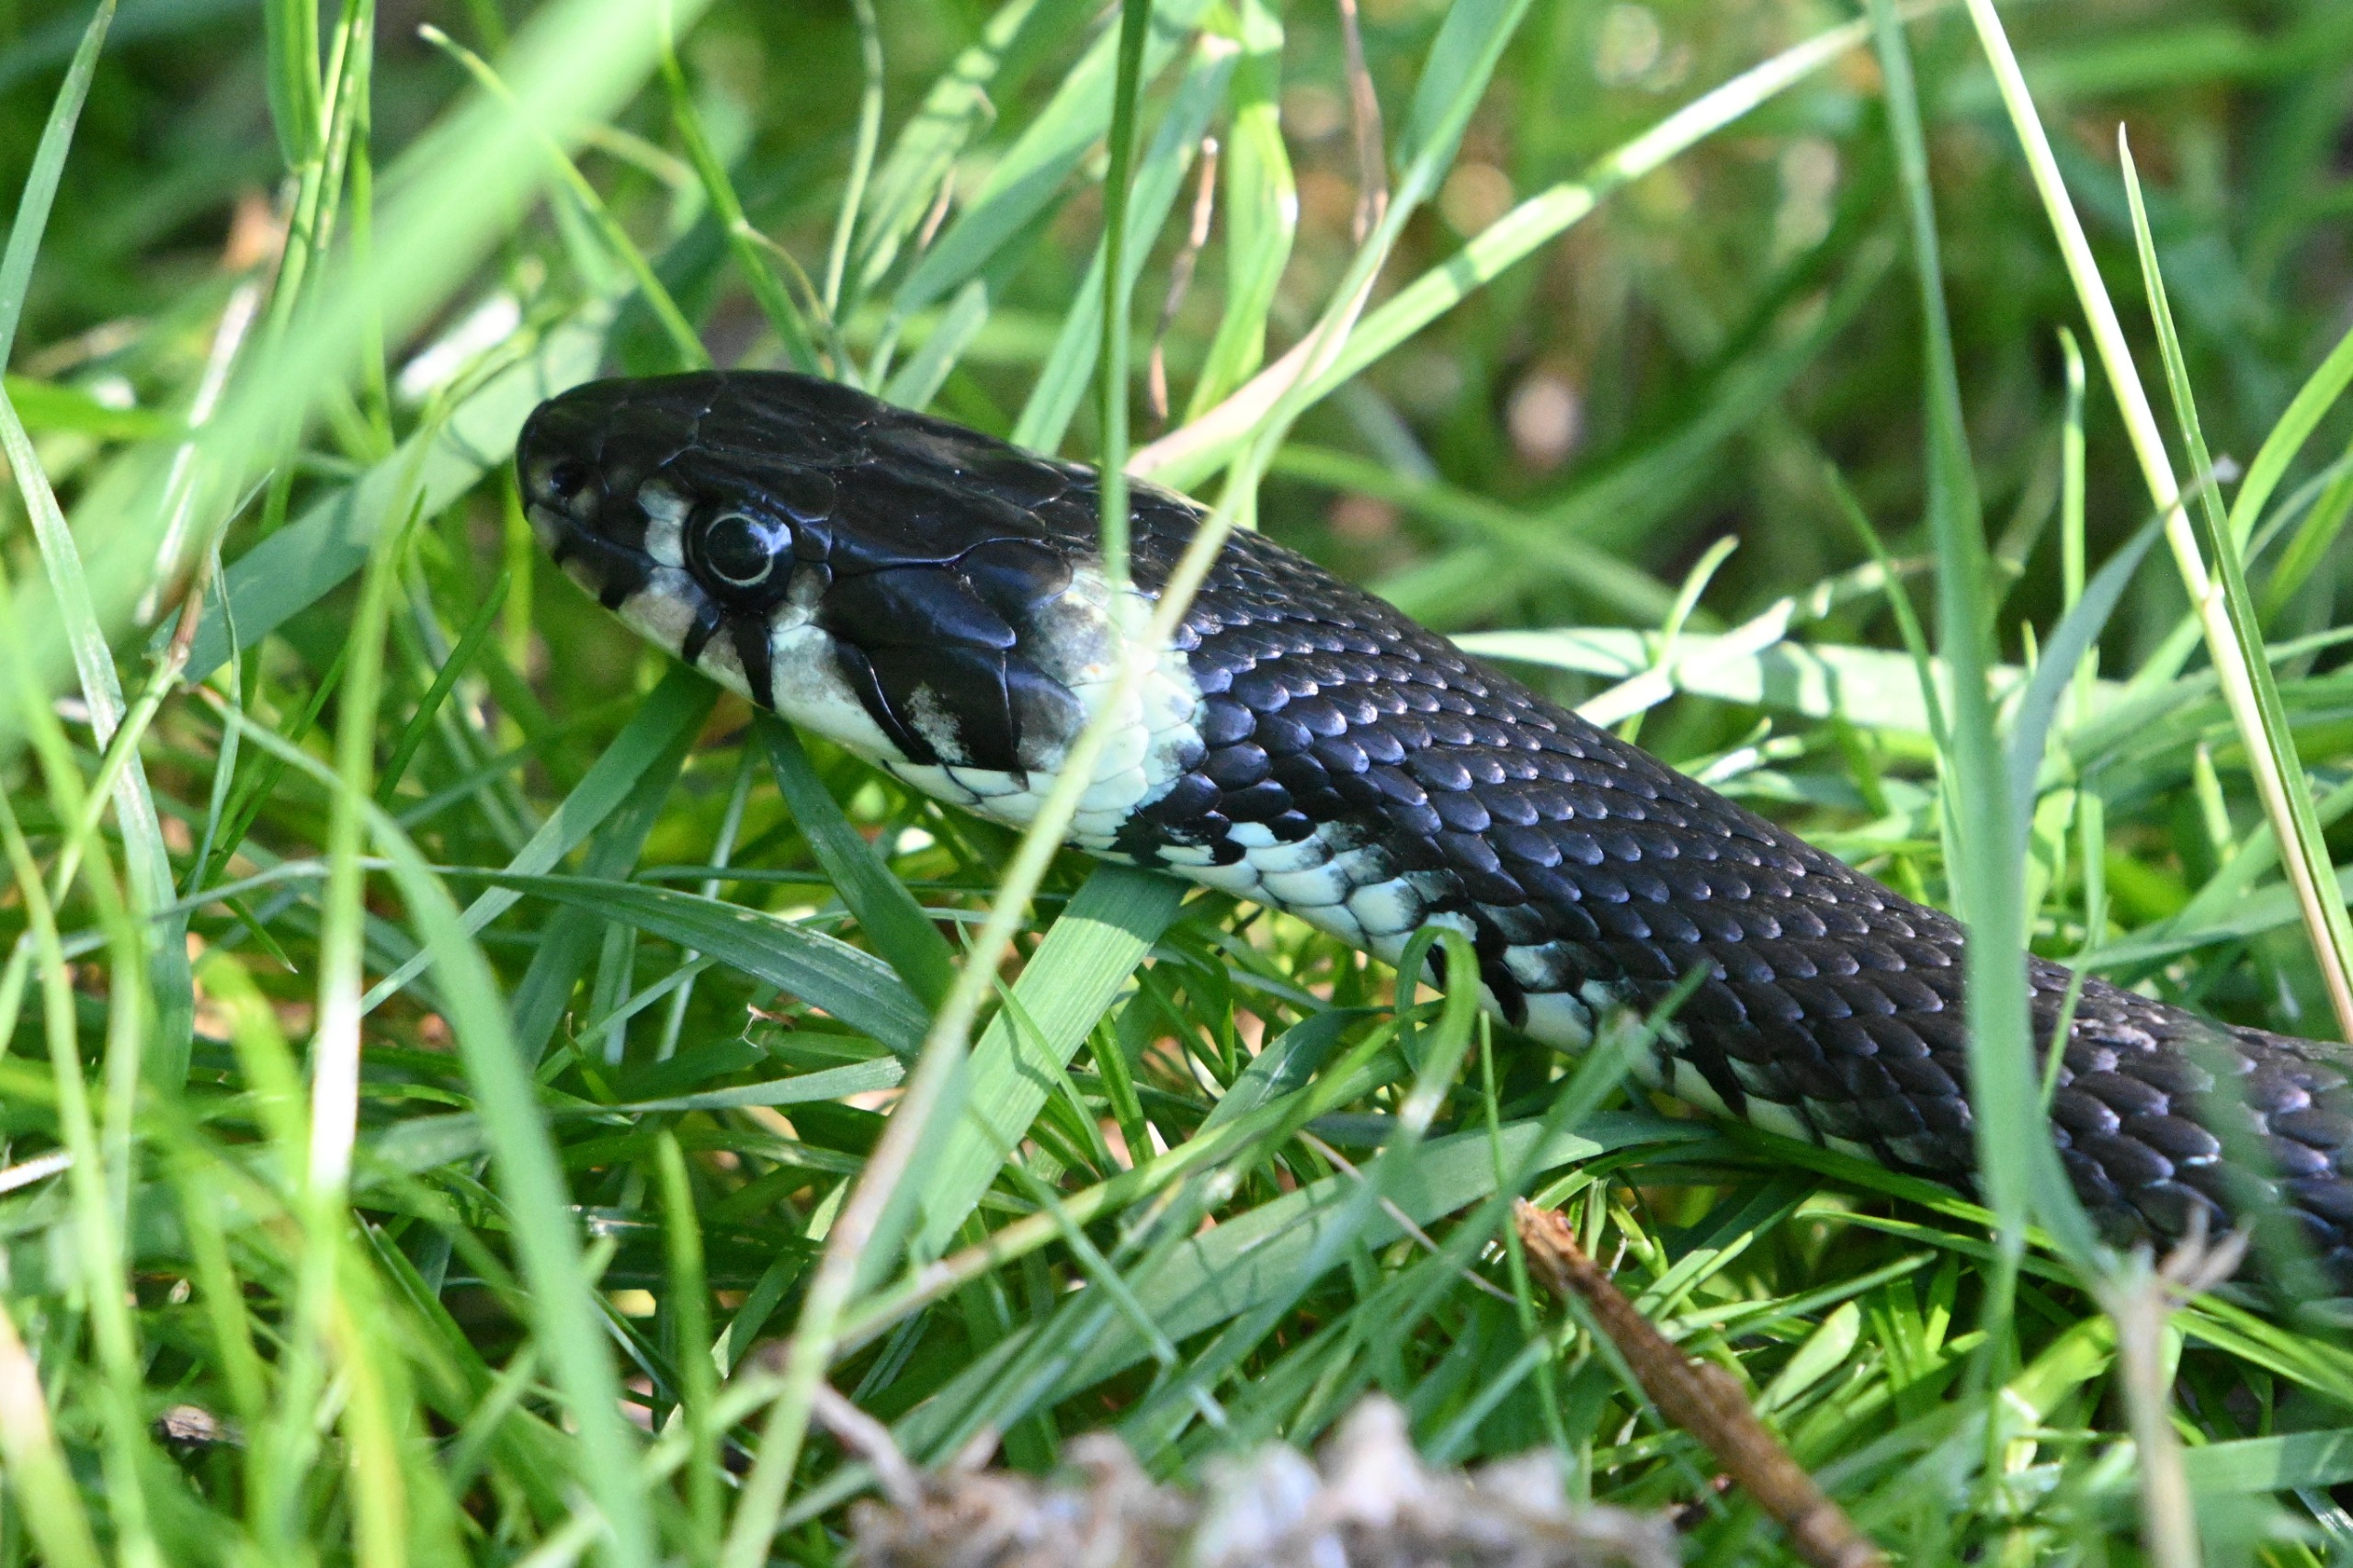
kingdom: Animalia
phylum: Chordata
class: Squamata
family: Colubridae
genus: Natrix
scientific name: Natrix natrix
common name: Snog
